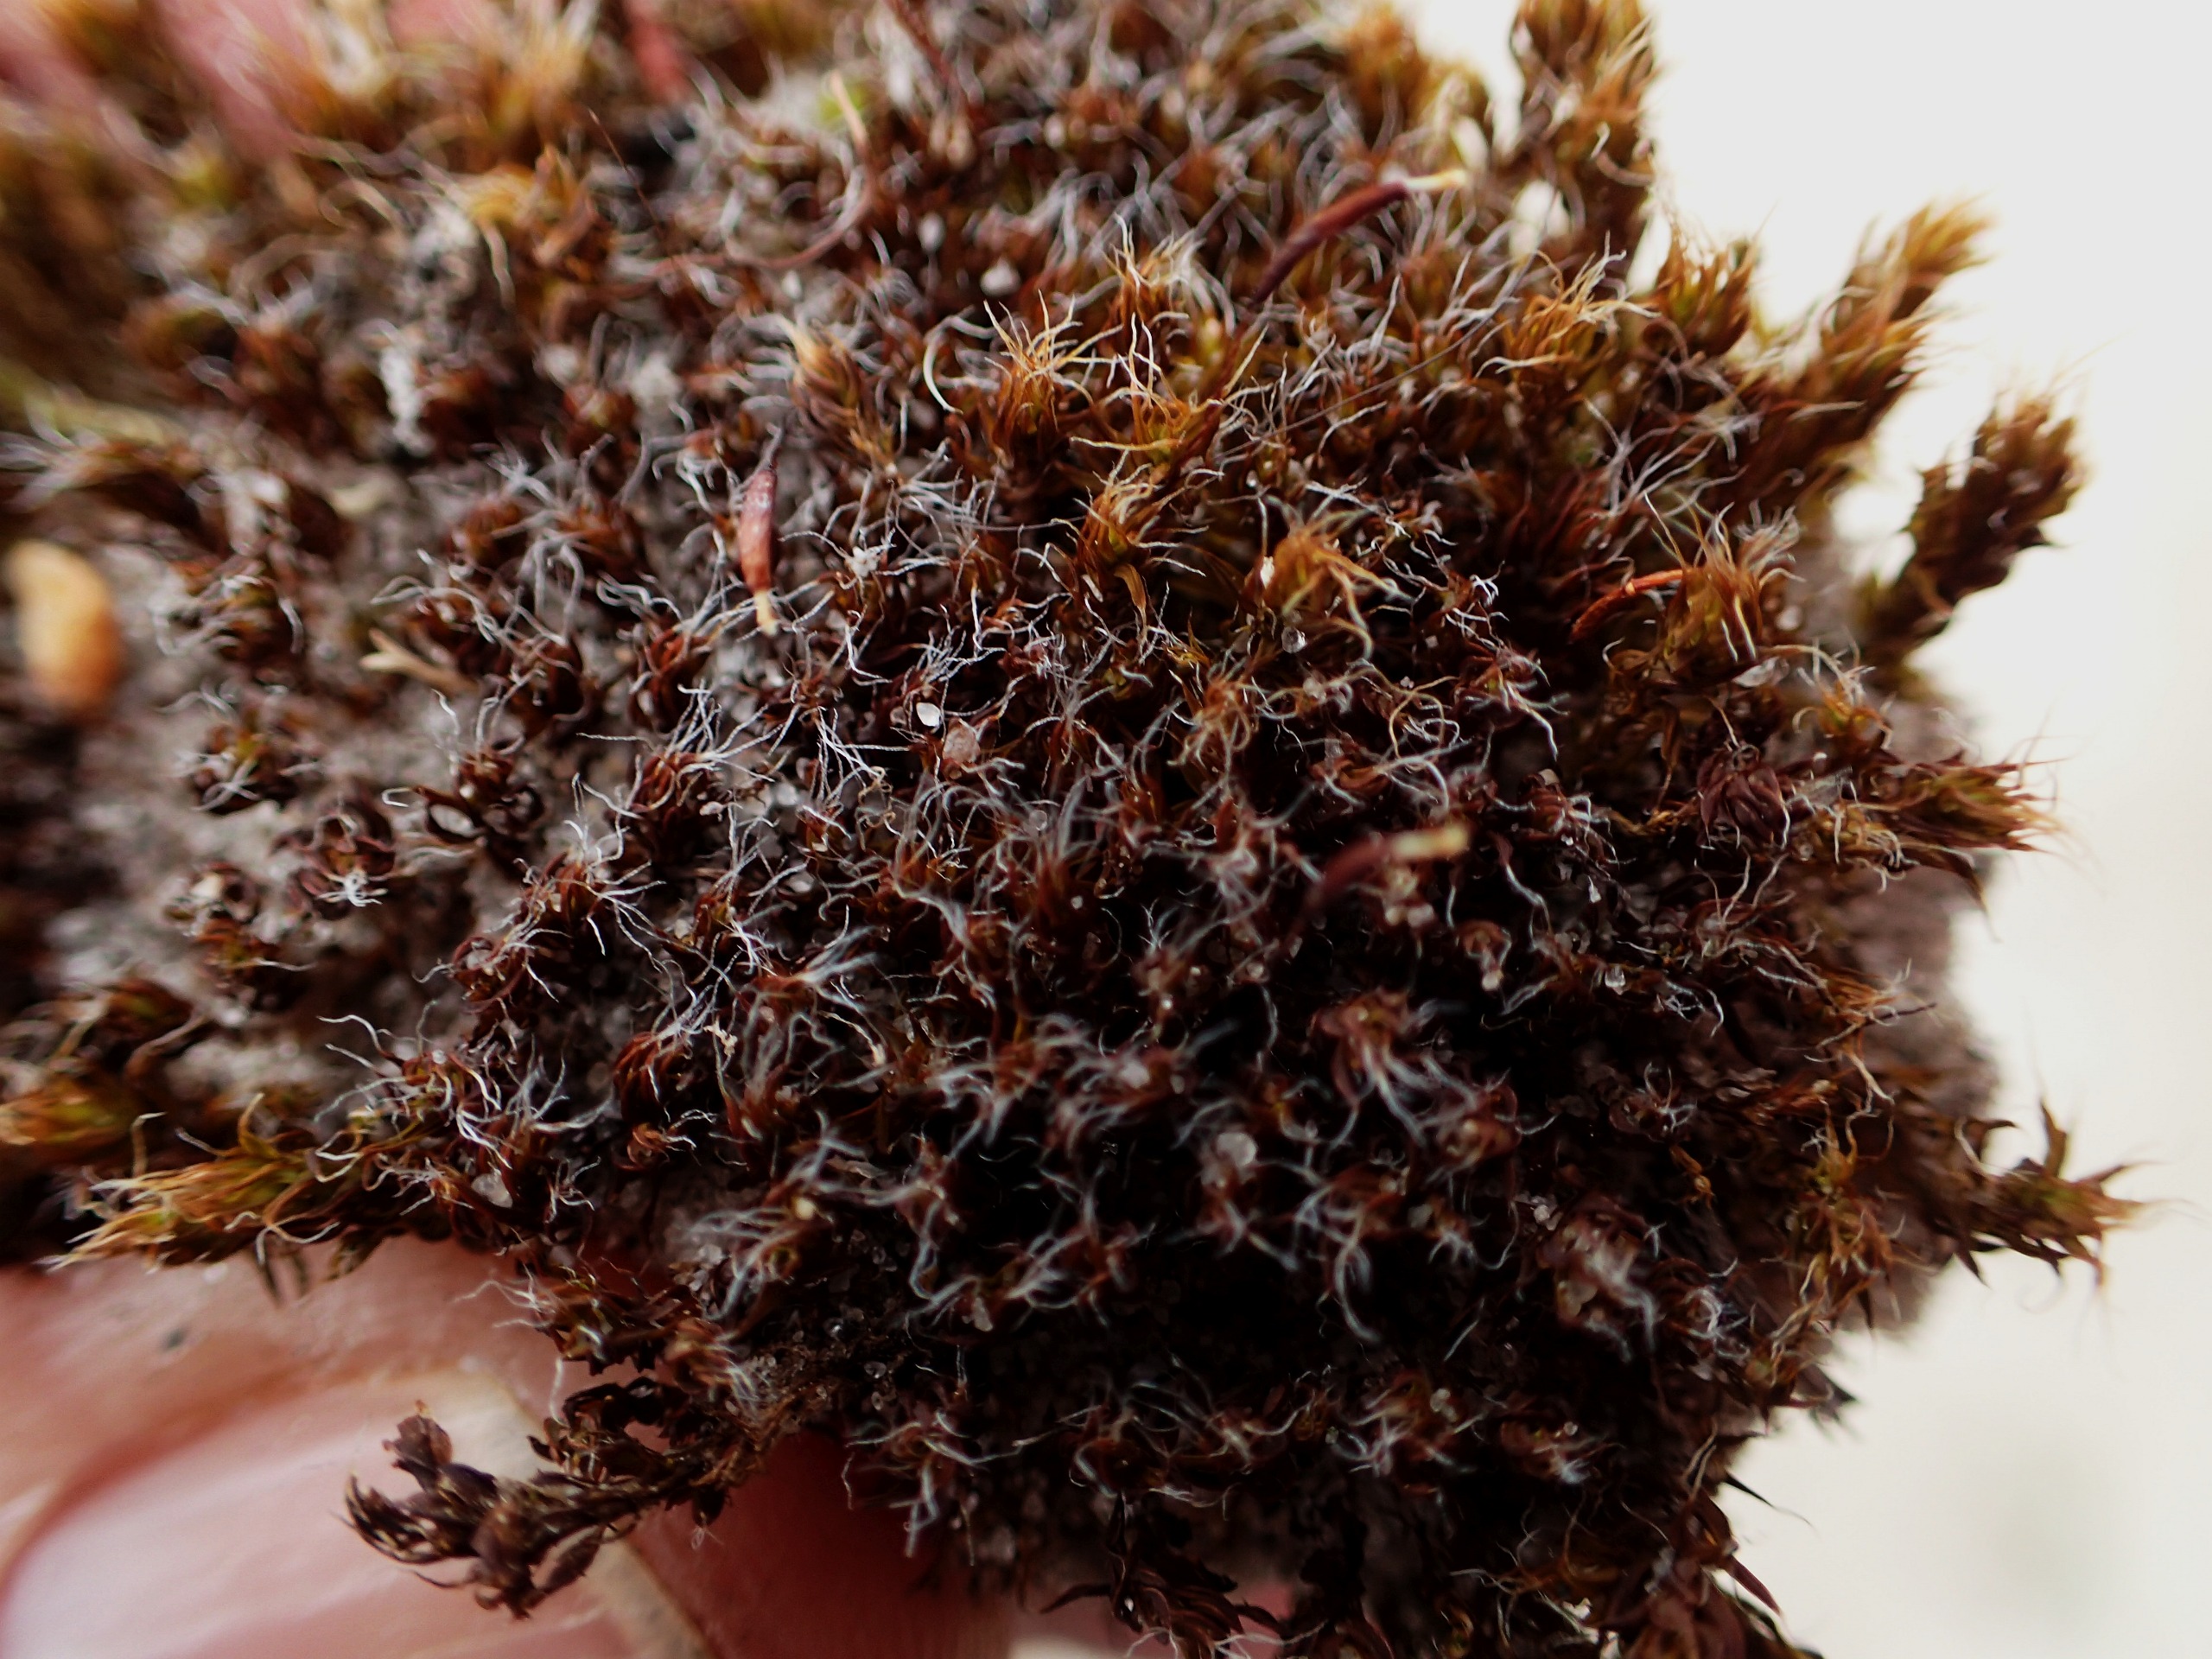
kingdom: Plantae
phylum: Bryophyta
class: Bryopsida
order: Pottiales
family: Pottiaceae
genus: Syntrichia
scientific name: Syntrichia
